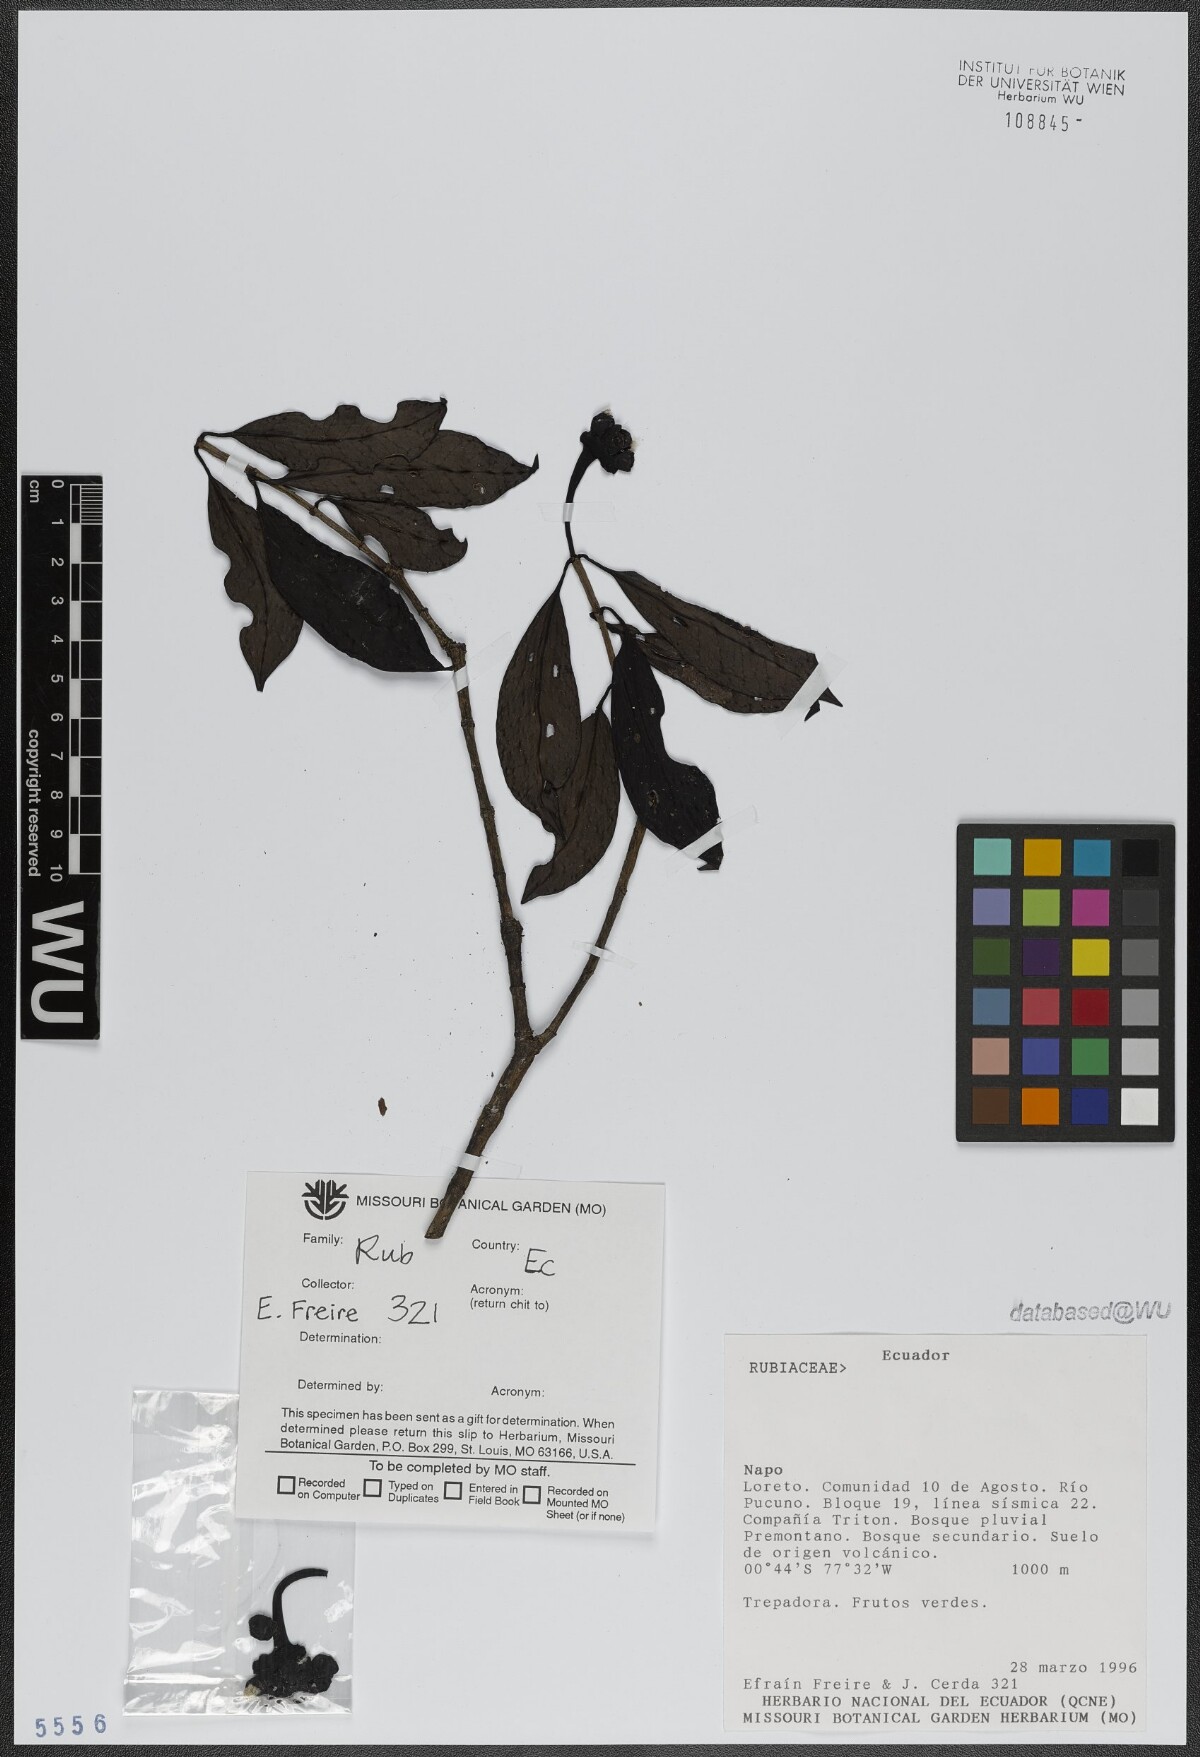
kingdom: Plantae
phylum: Tracheophyta
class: Magnoliopsida
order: Gentianales
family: Rubiaceae
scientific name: Rubiaceae
